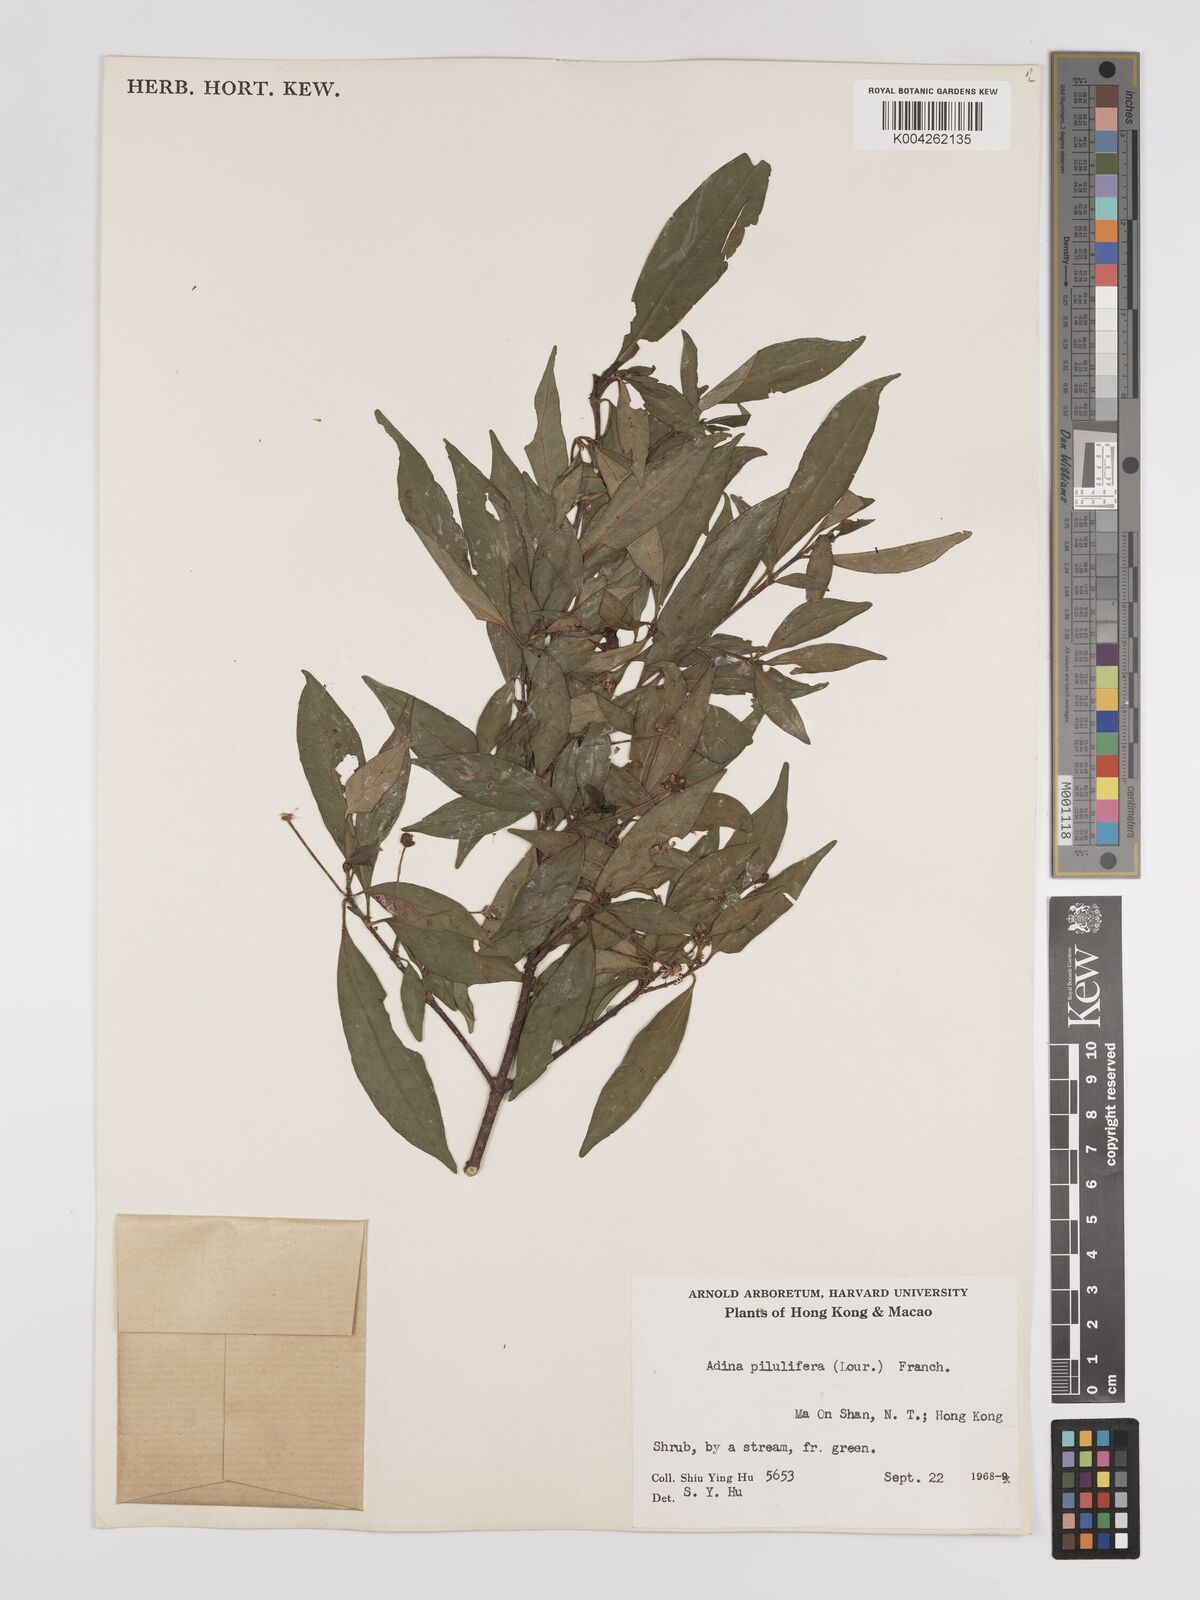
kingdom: Plantae
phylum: Tracheophyta
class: Magnoliopsida
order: Gentianales
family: Rubiaceae
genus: Adina
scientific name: Adina pilulifera
